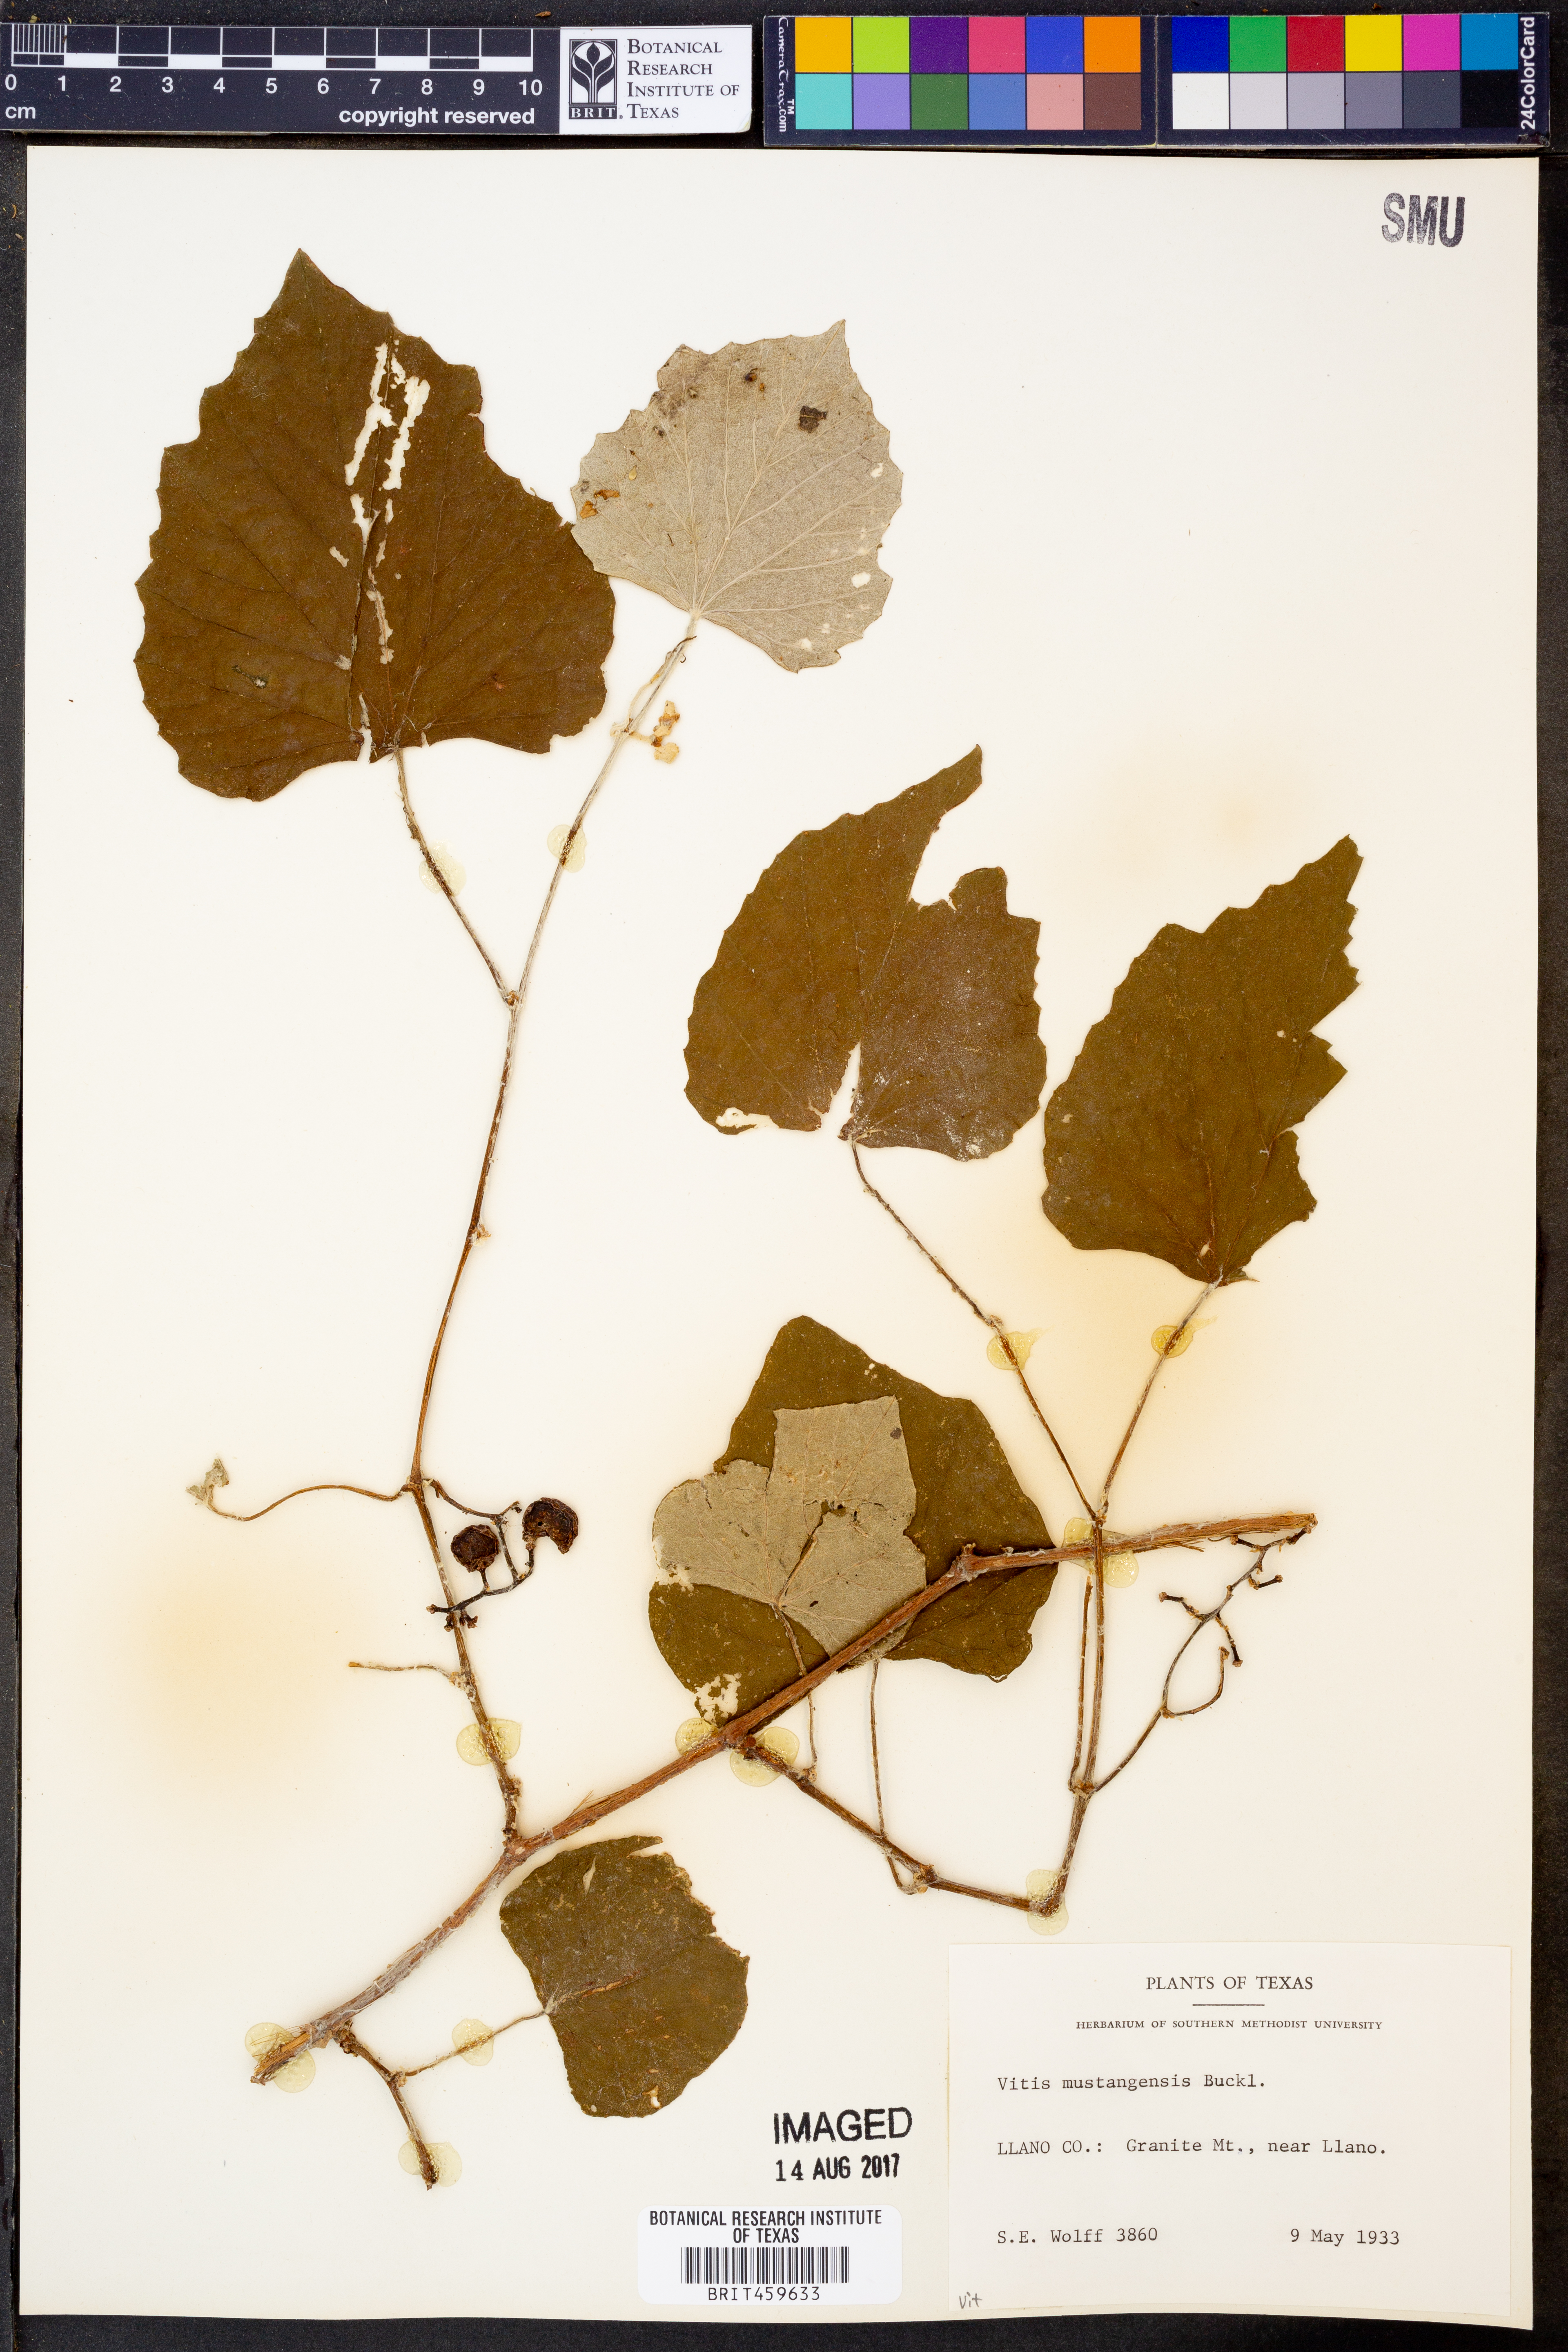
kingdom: Plantae
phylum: Tracheophyta
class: Magnoliopsida
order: Vitales
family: Vitaceae
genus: Vitis
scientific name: Vitis mustangensis
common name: Mustang grape
